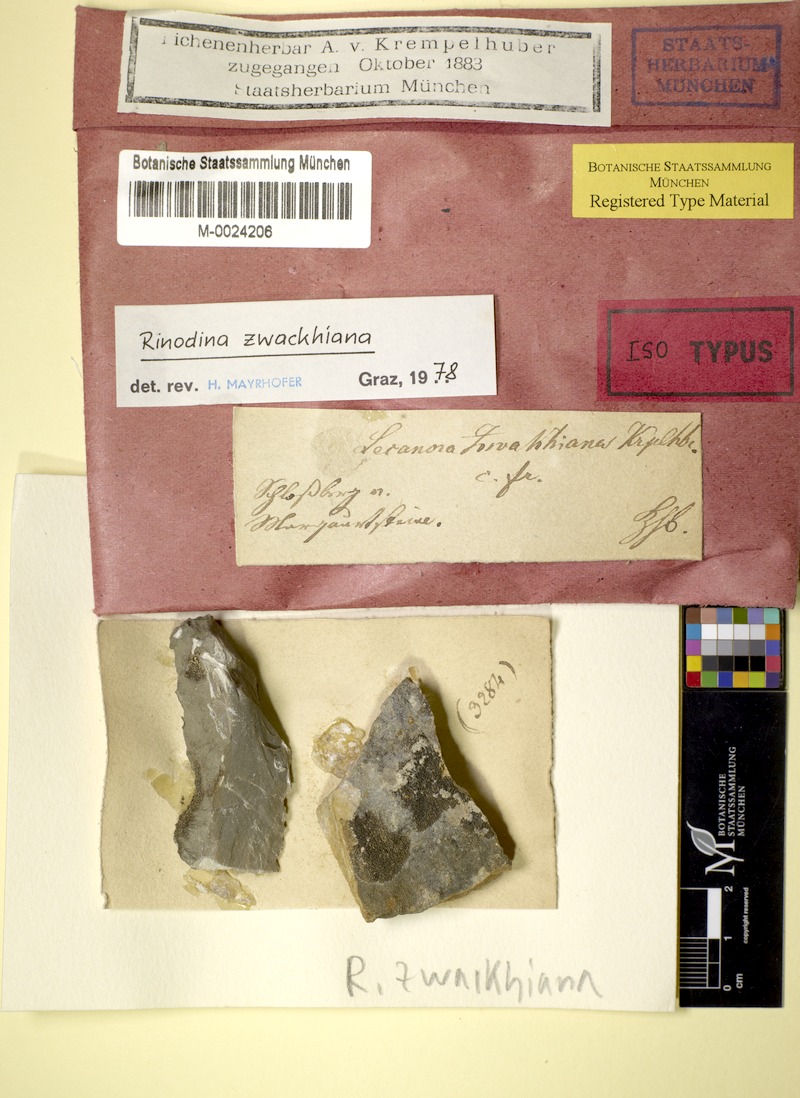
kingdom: Fungi
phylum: Ascomycota
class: Lecanoromycetes
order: Caliciales
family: Physciaceae
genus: Johnsheardia
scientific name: Johnsheardia zwackhiana
